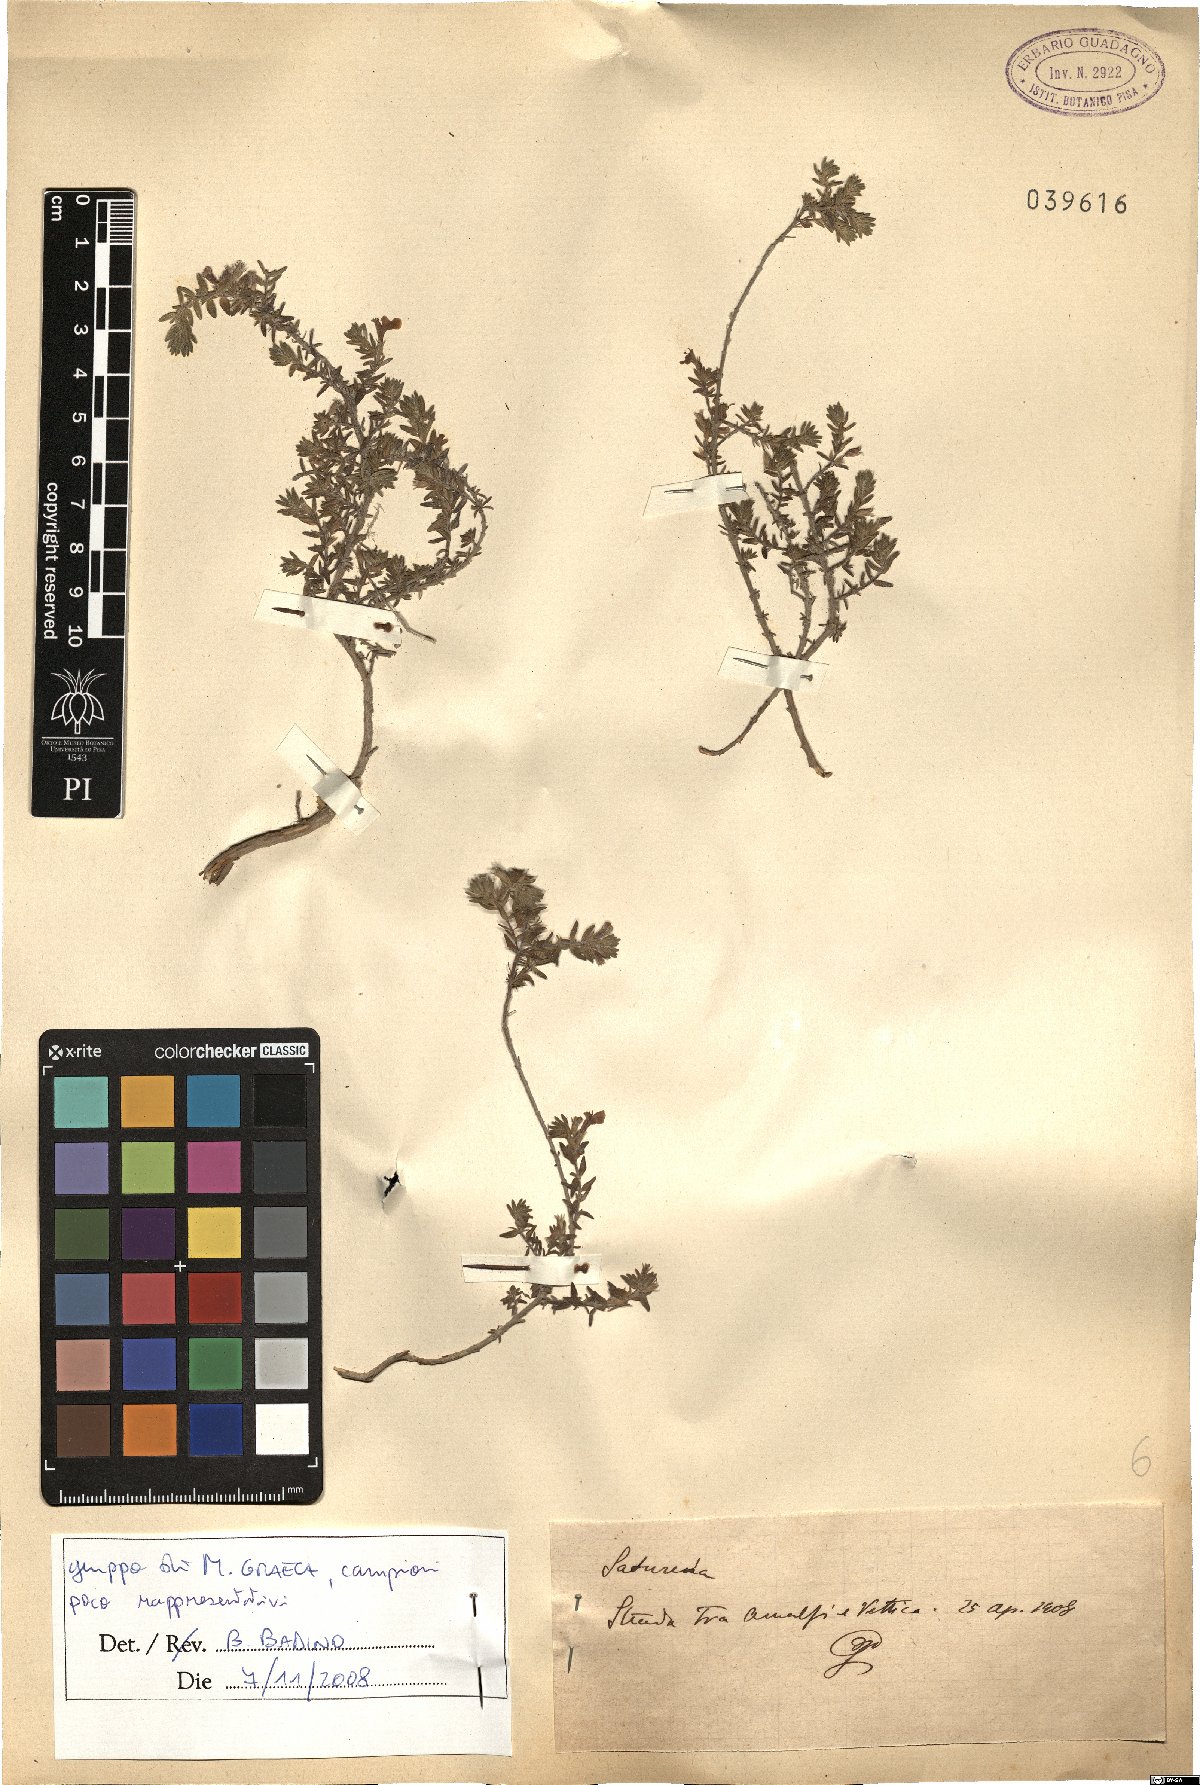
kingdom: Plantae
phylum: Tracheophyta
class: Magnoliopsida
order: Lamiales
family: Lamiaceae
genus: Micromeria
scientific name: Micromeria graeca
